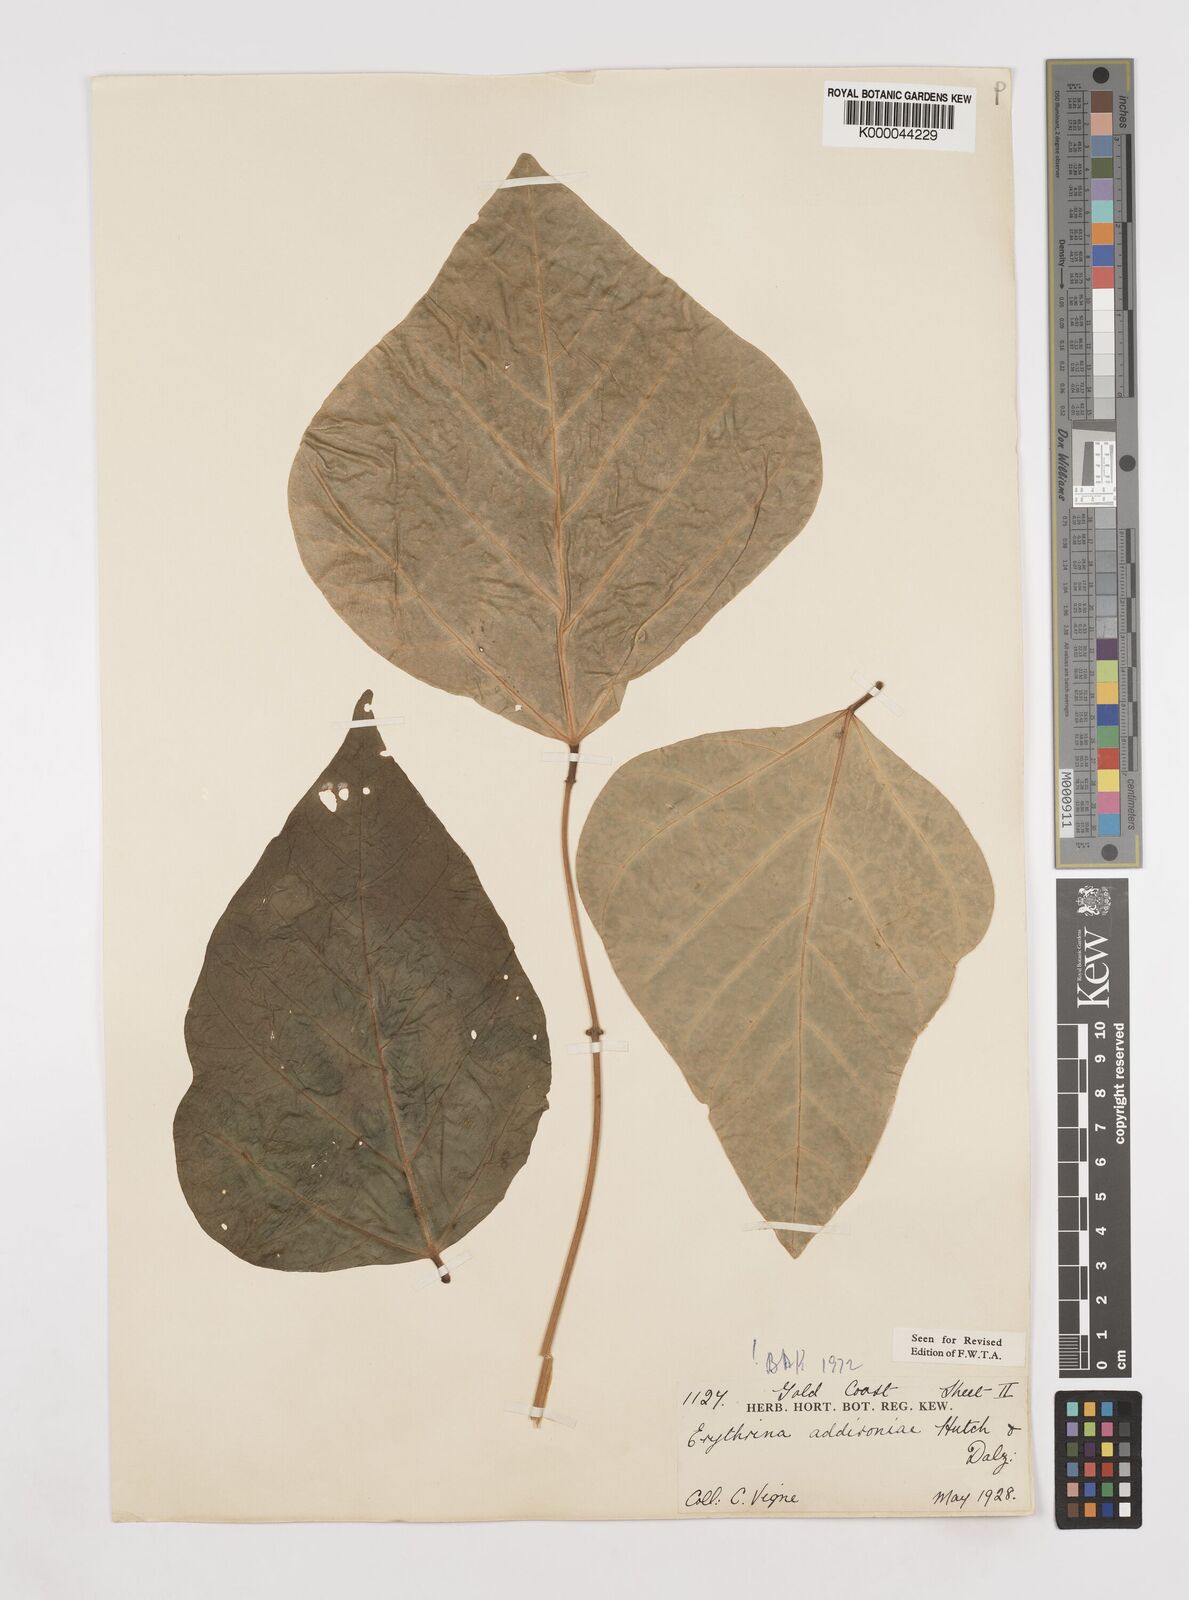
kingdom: Plantae
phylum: Tracheophyta
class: Magnoliopsida
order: Fabales
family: Fabaceae
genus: Erythrina
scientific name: Erythrina addisoniae
